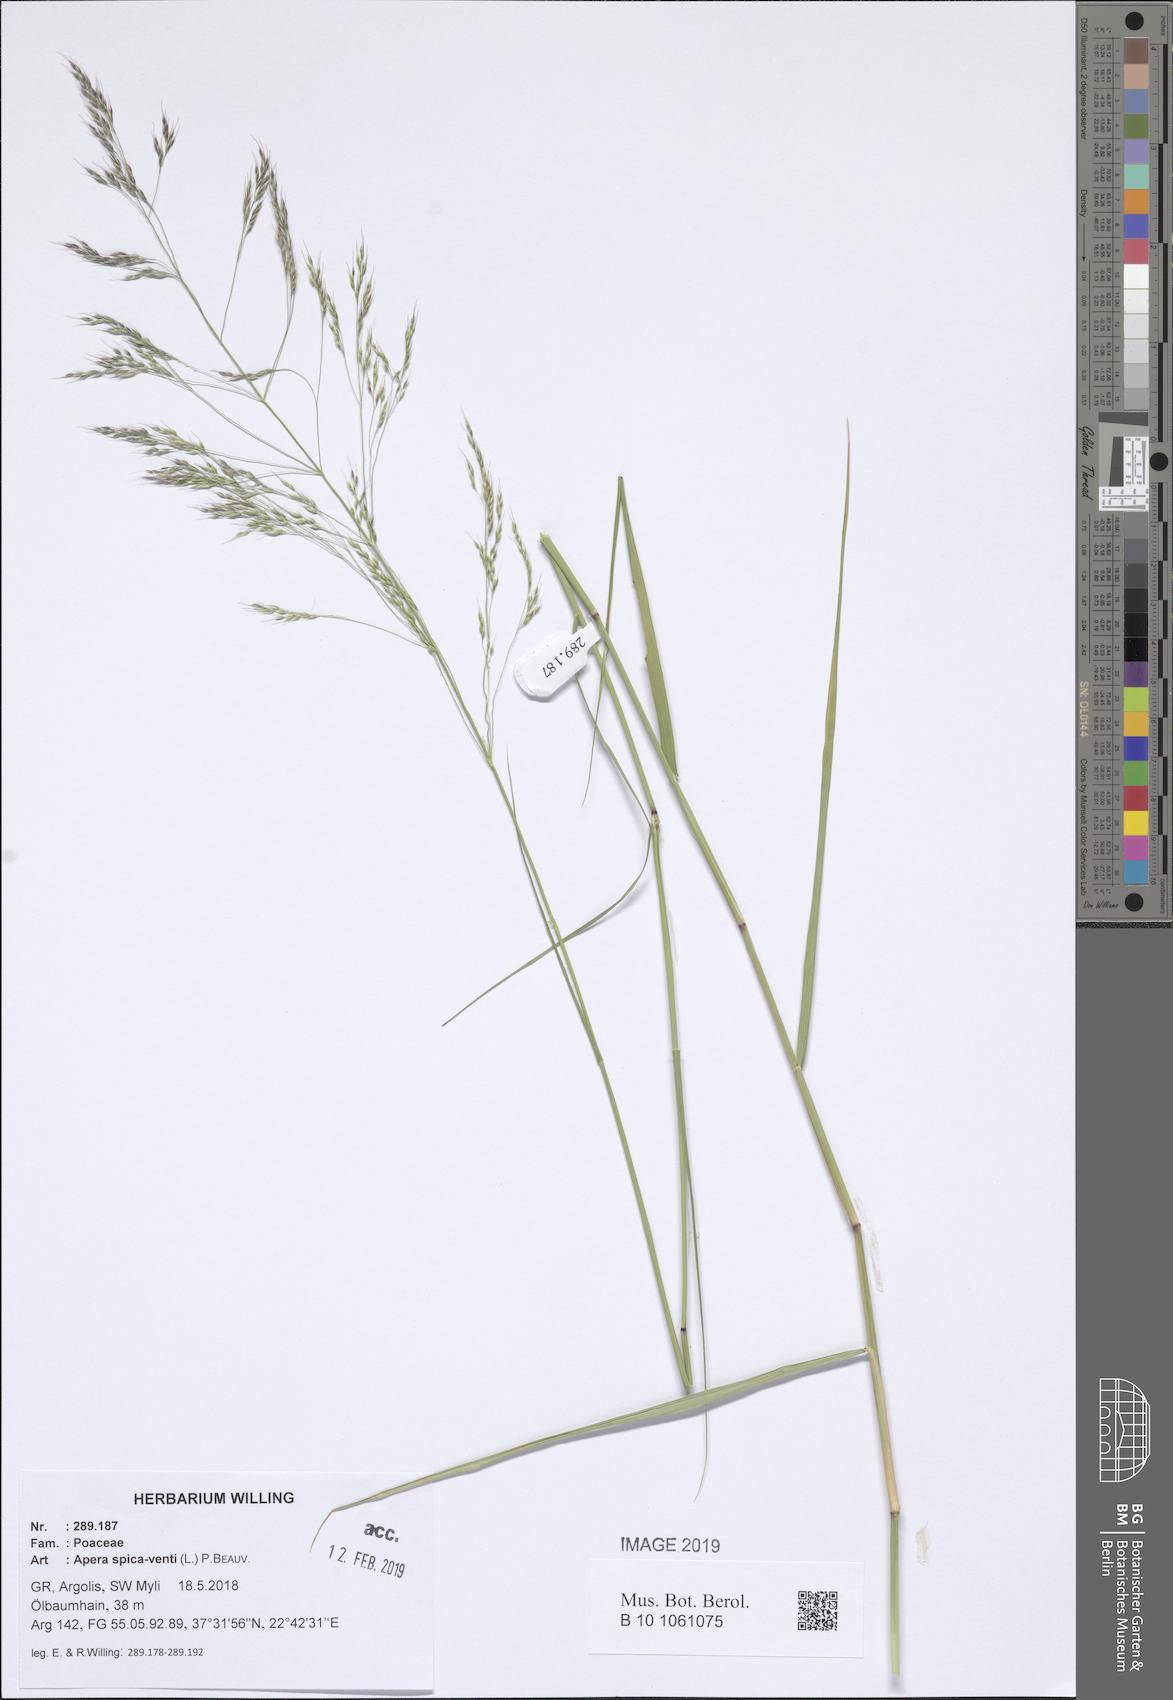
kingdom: Plantae
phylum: Tracheophyta
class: Liliopsida
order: Poales
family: Poaceae
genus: Apera
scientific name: Apera spica-venti
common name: Loose silky-bent
